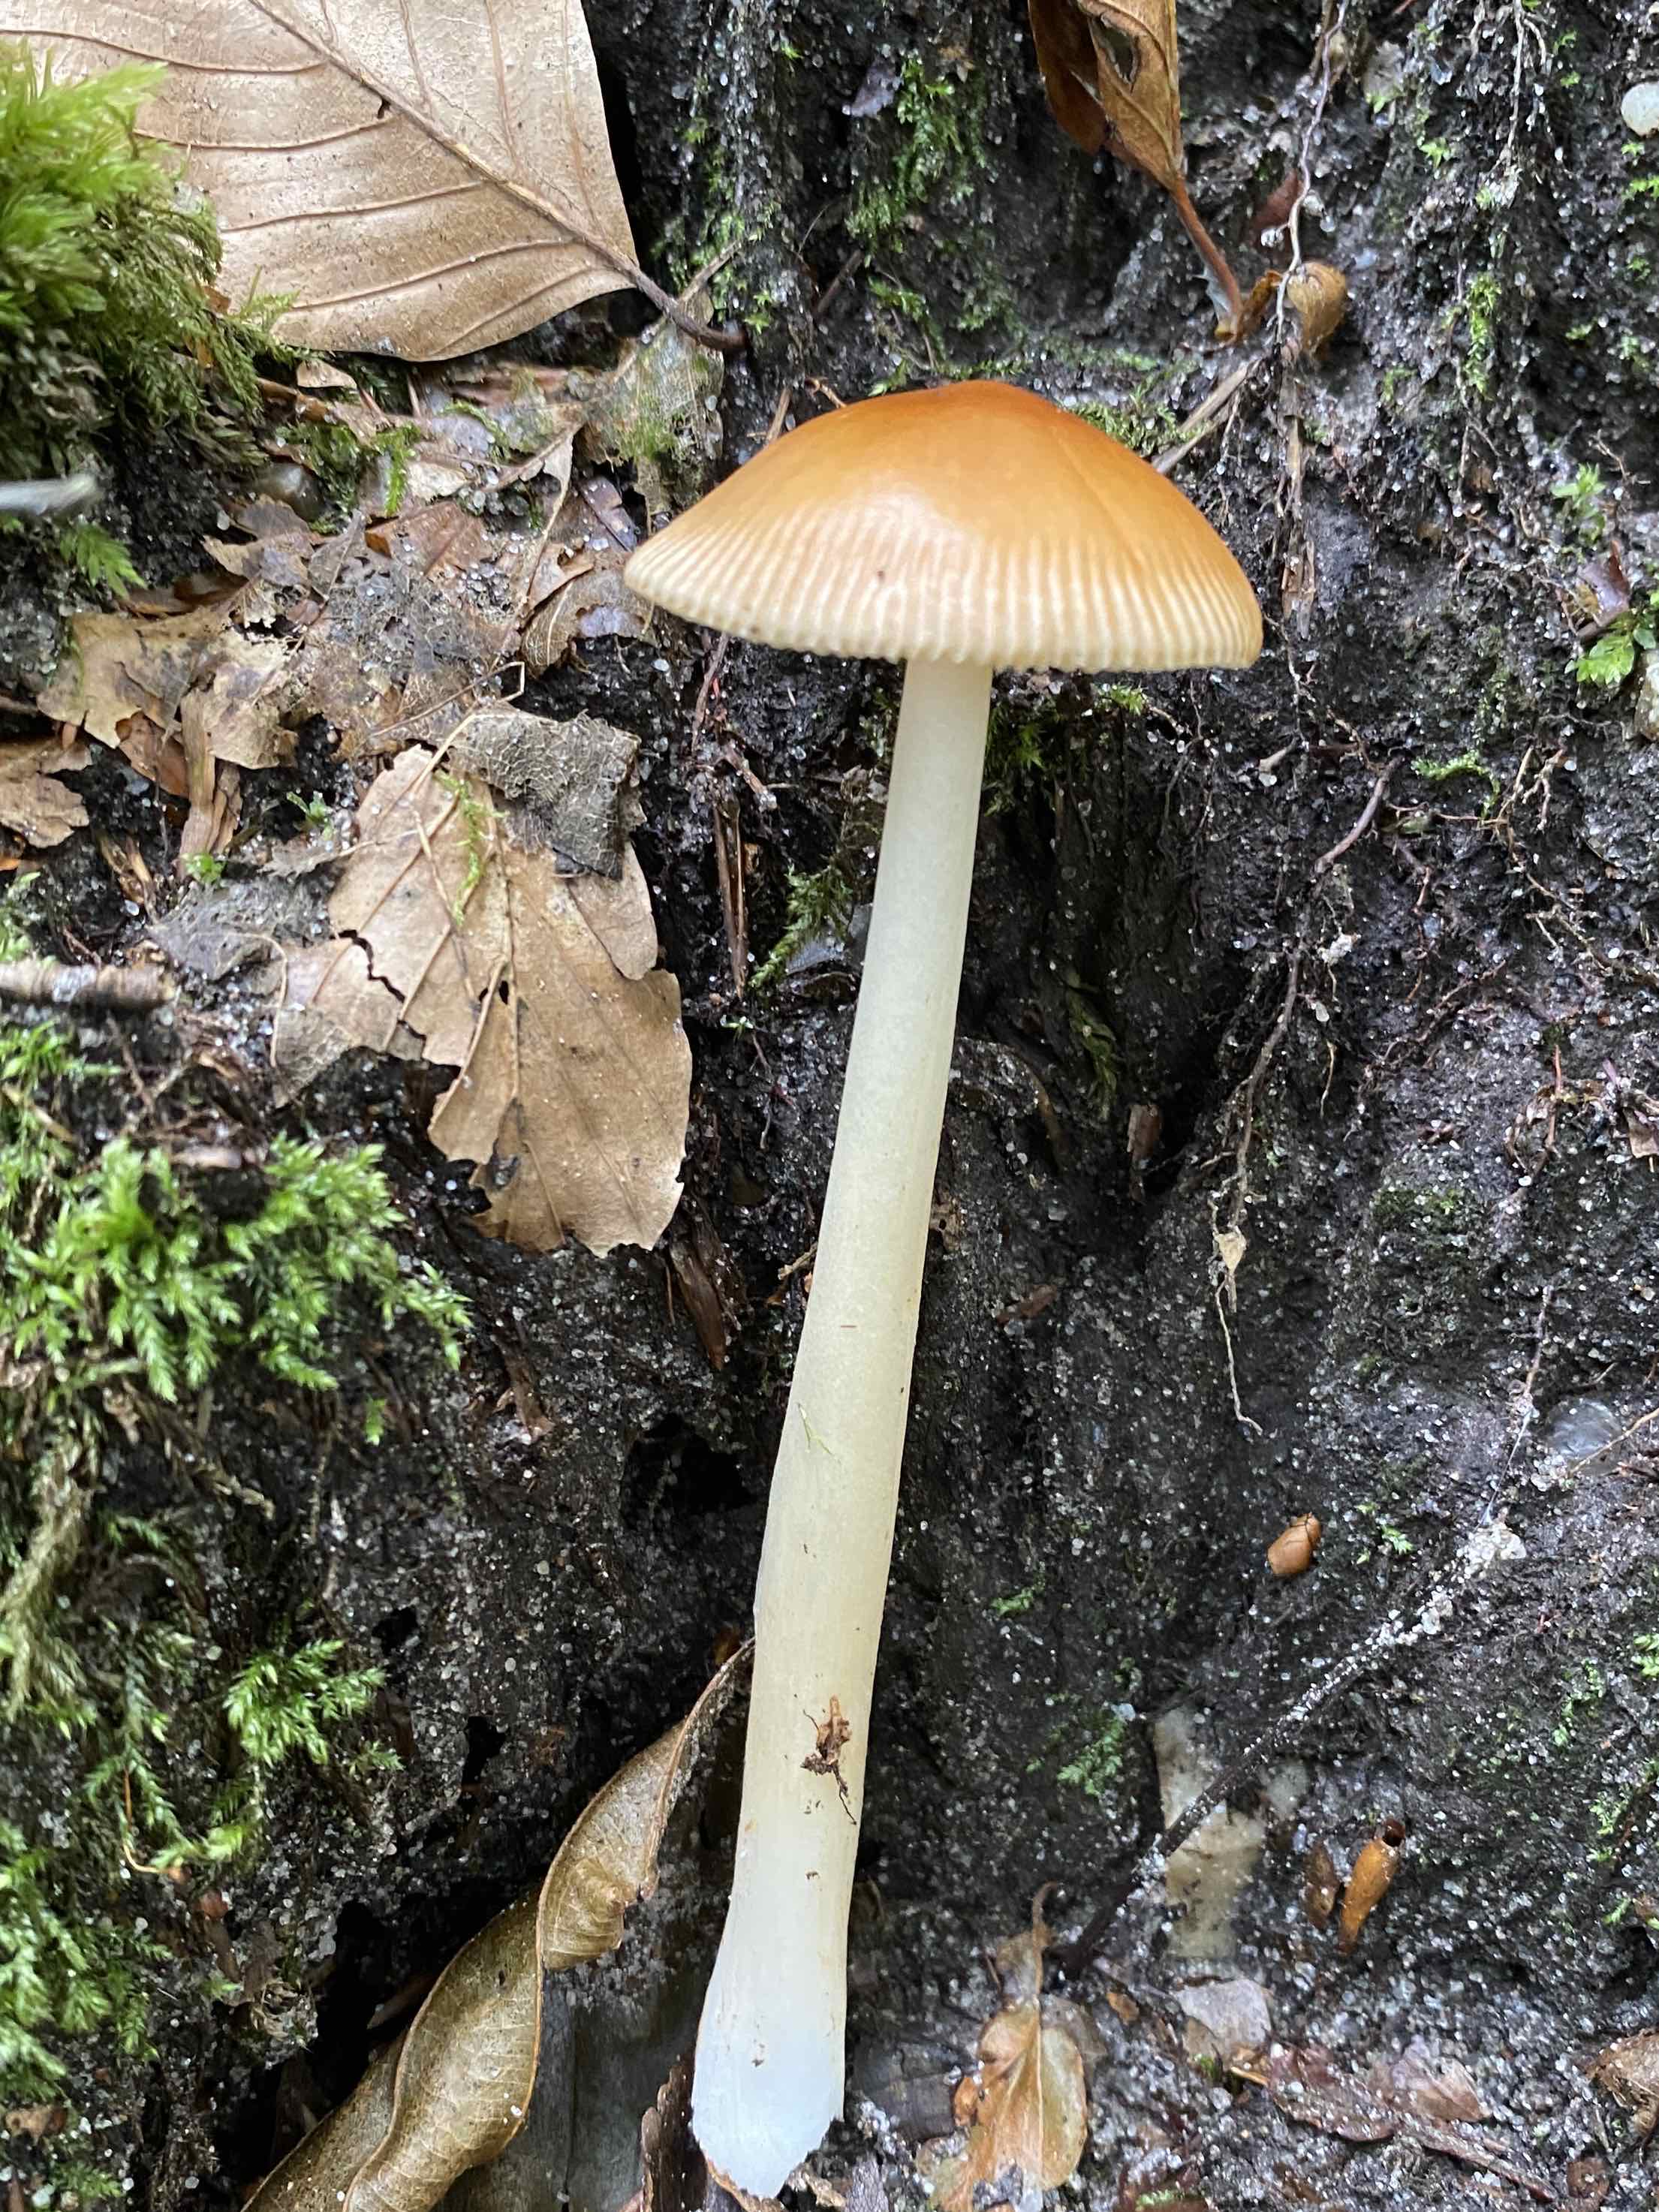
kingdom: Fungi
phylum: Basidiomycota
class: Agaricomycetes
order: Agaricales
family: Amanitaceae
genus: Amanita
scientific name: Amanita fulva
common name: brun kam-fluesvamp
